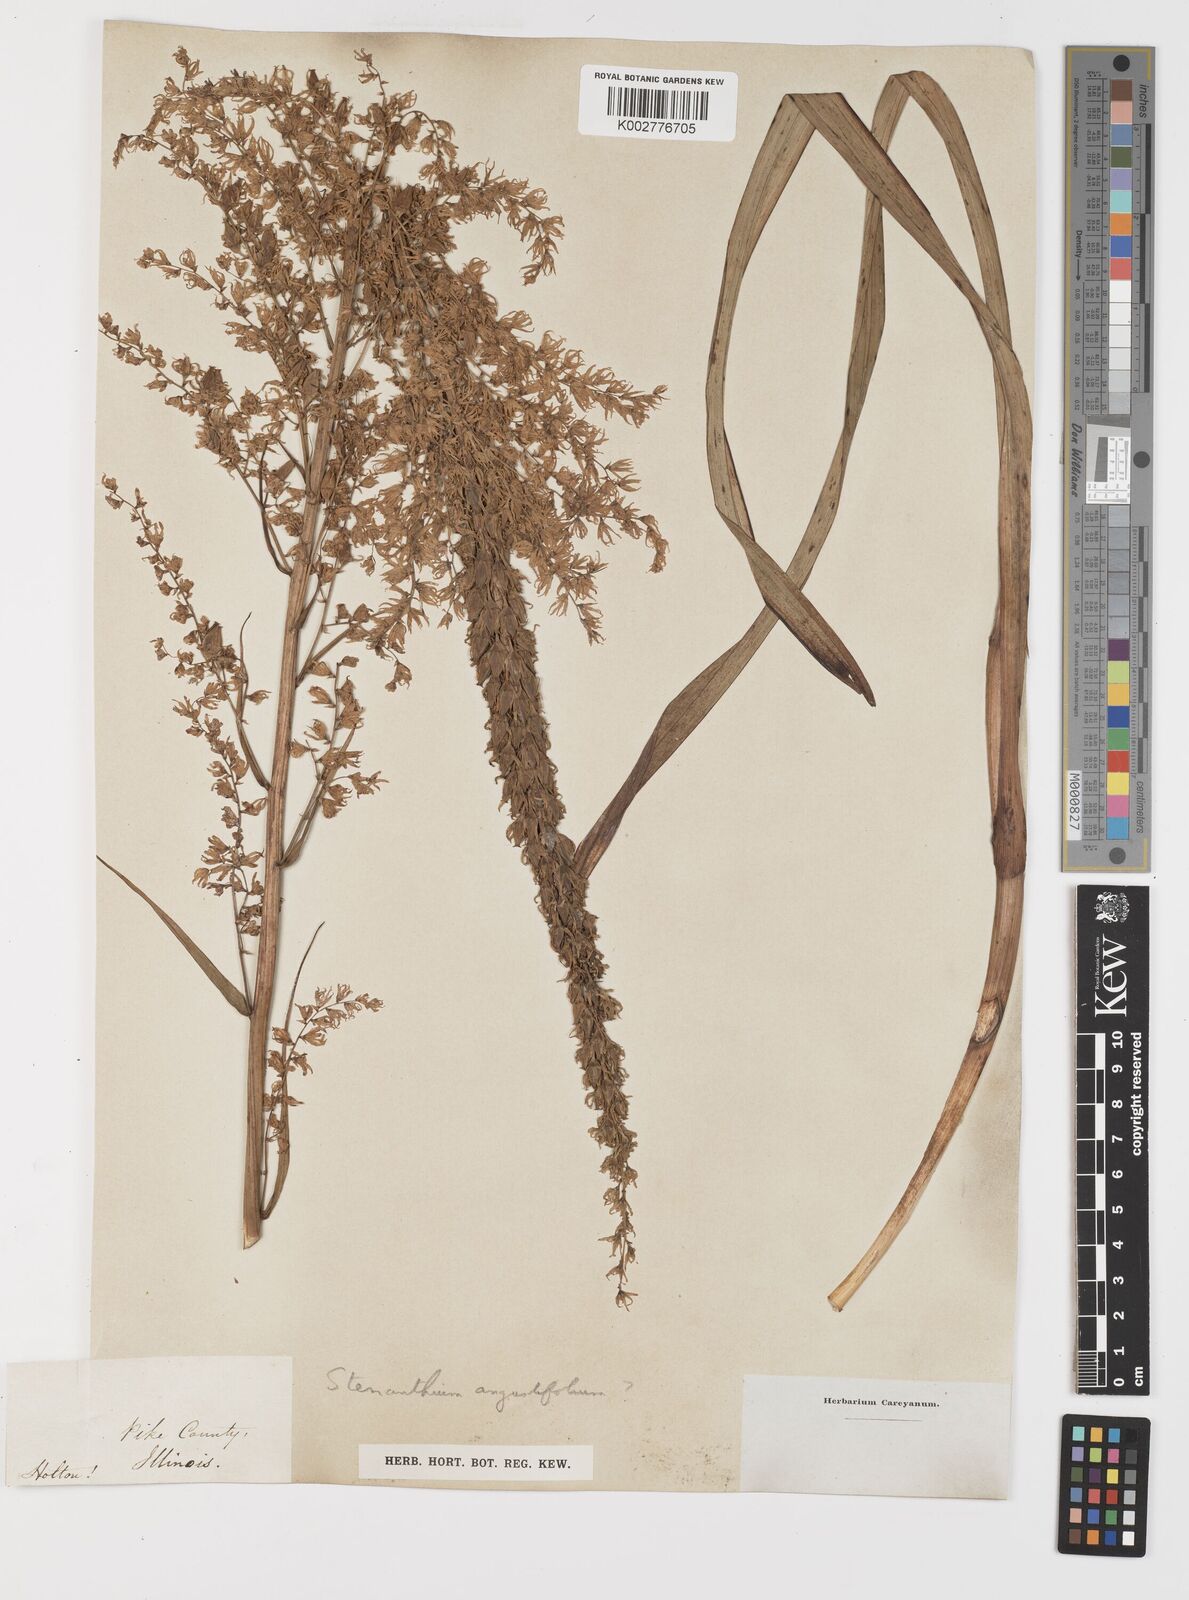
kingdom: Plantae
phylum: Tracheophyta
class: Liliopsida
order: Liliales
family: Melanthiaceae
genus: Stenanthium
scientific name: Stenanthium gramineum
